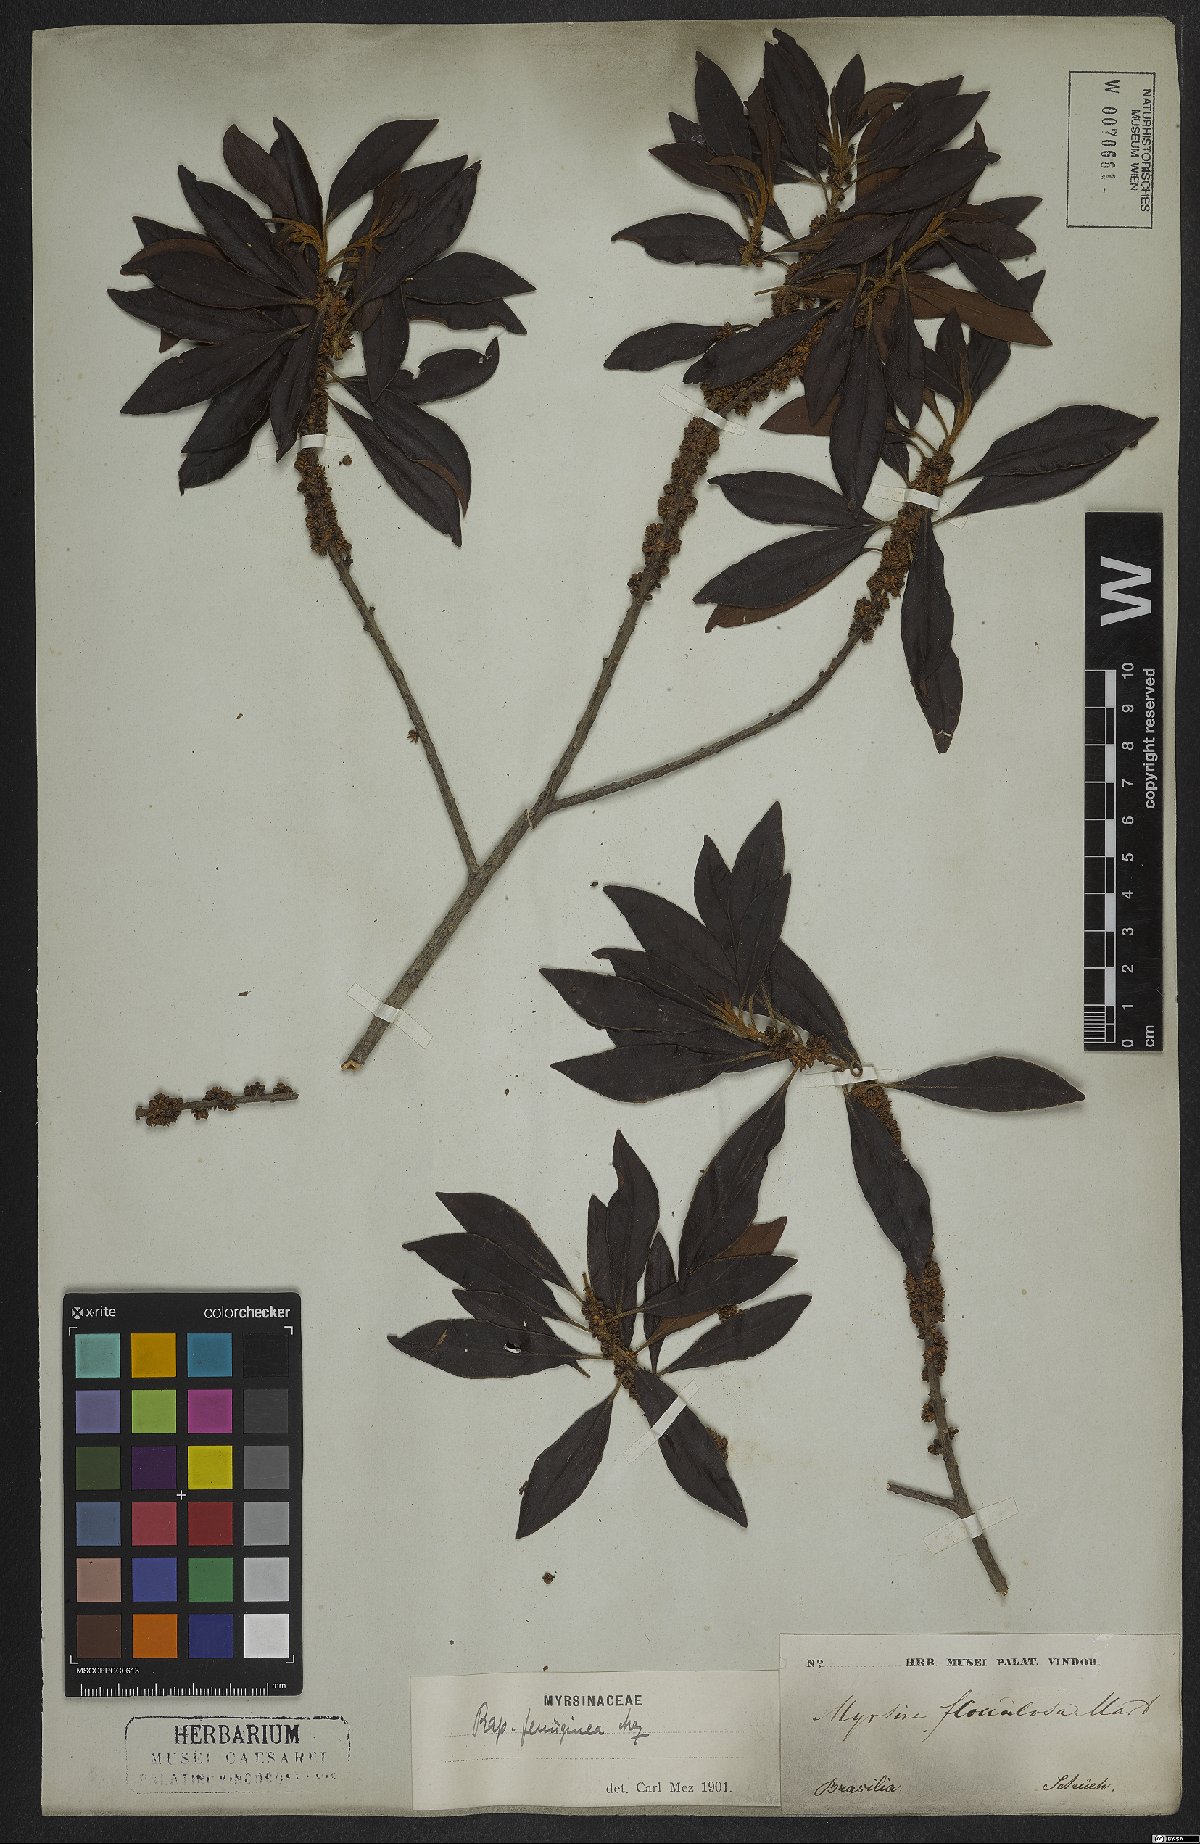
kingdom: Plantae
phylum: Tracheophyta
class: Magnoliopsida
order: Ericales
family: Primulaceae
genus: Myrsine
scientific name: Myrsine coriacea
